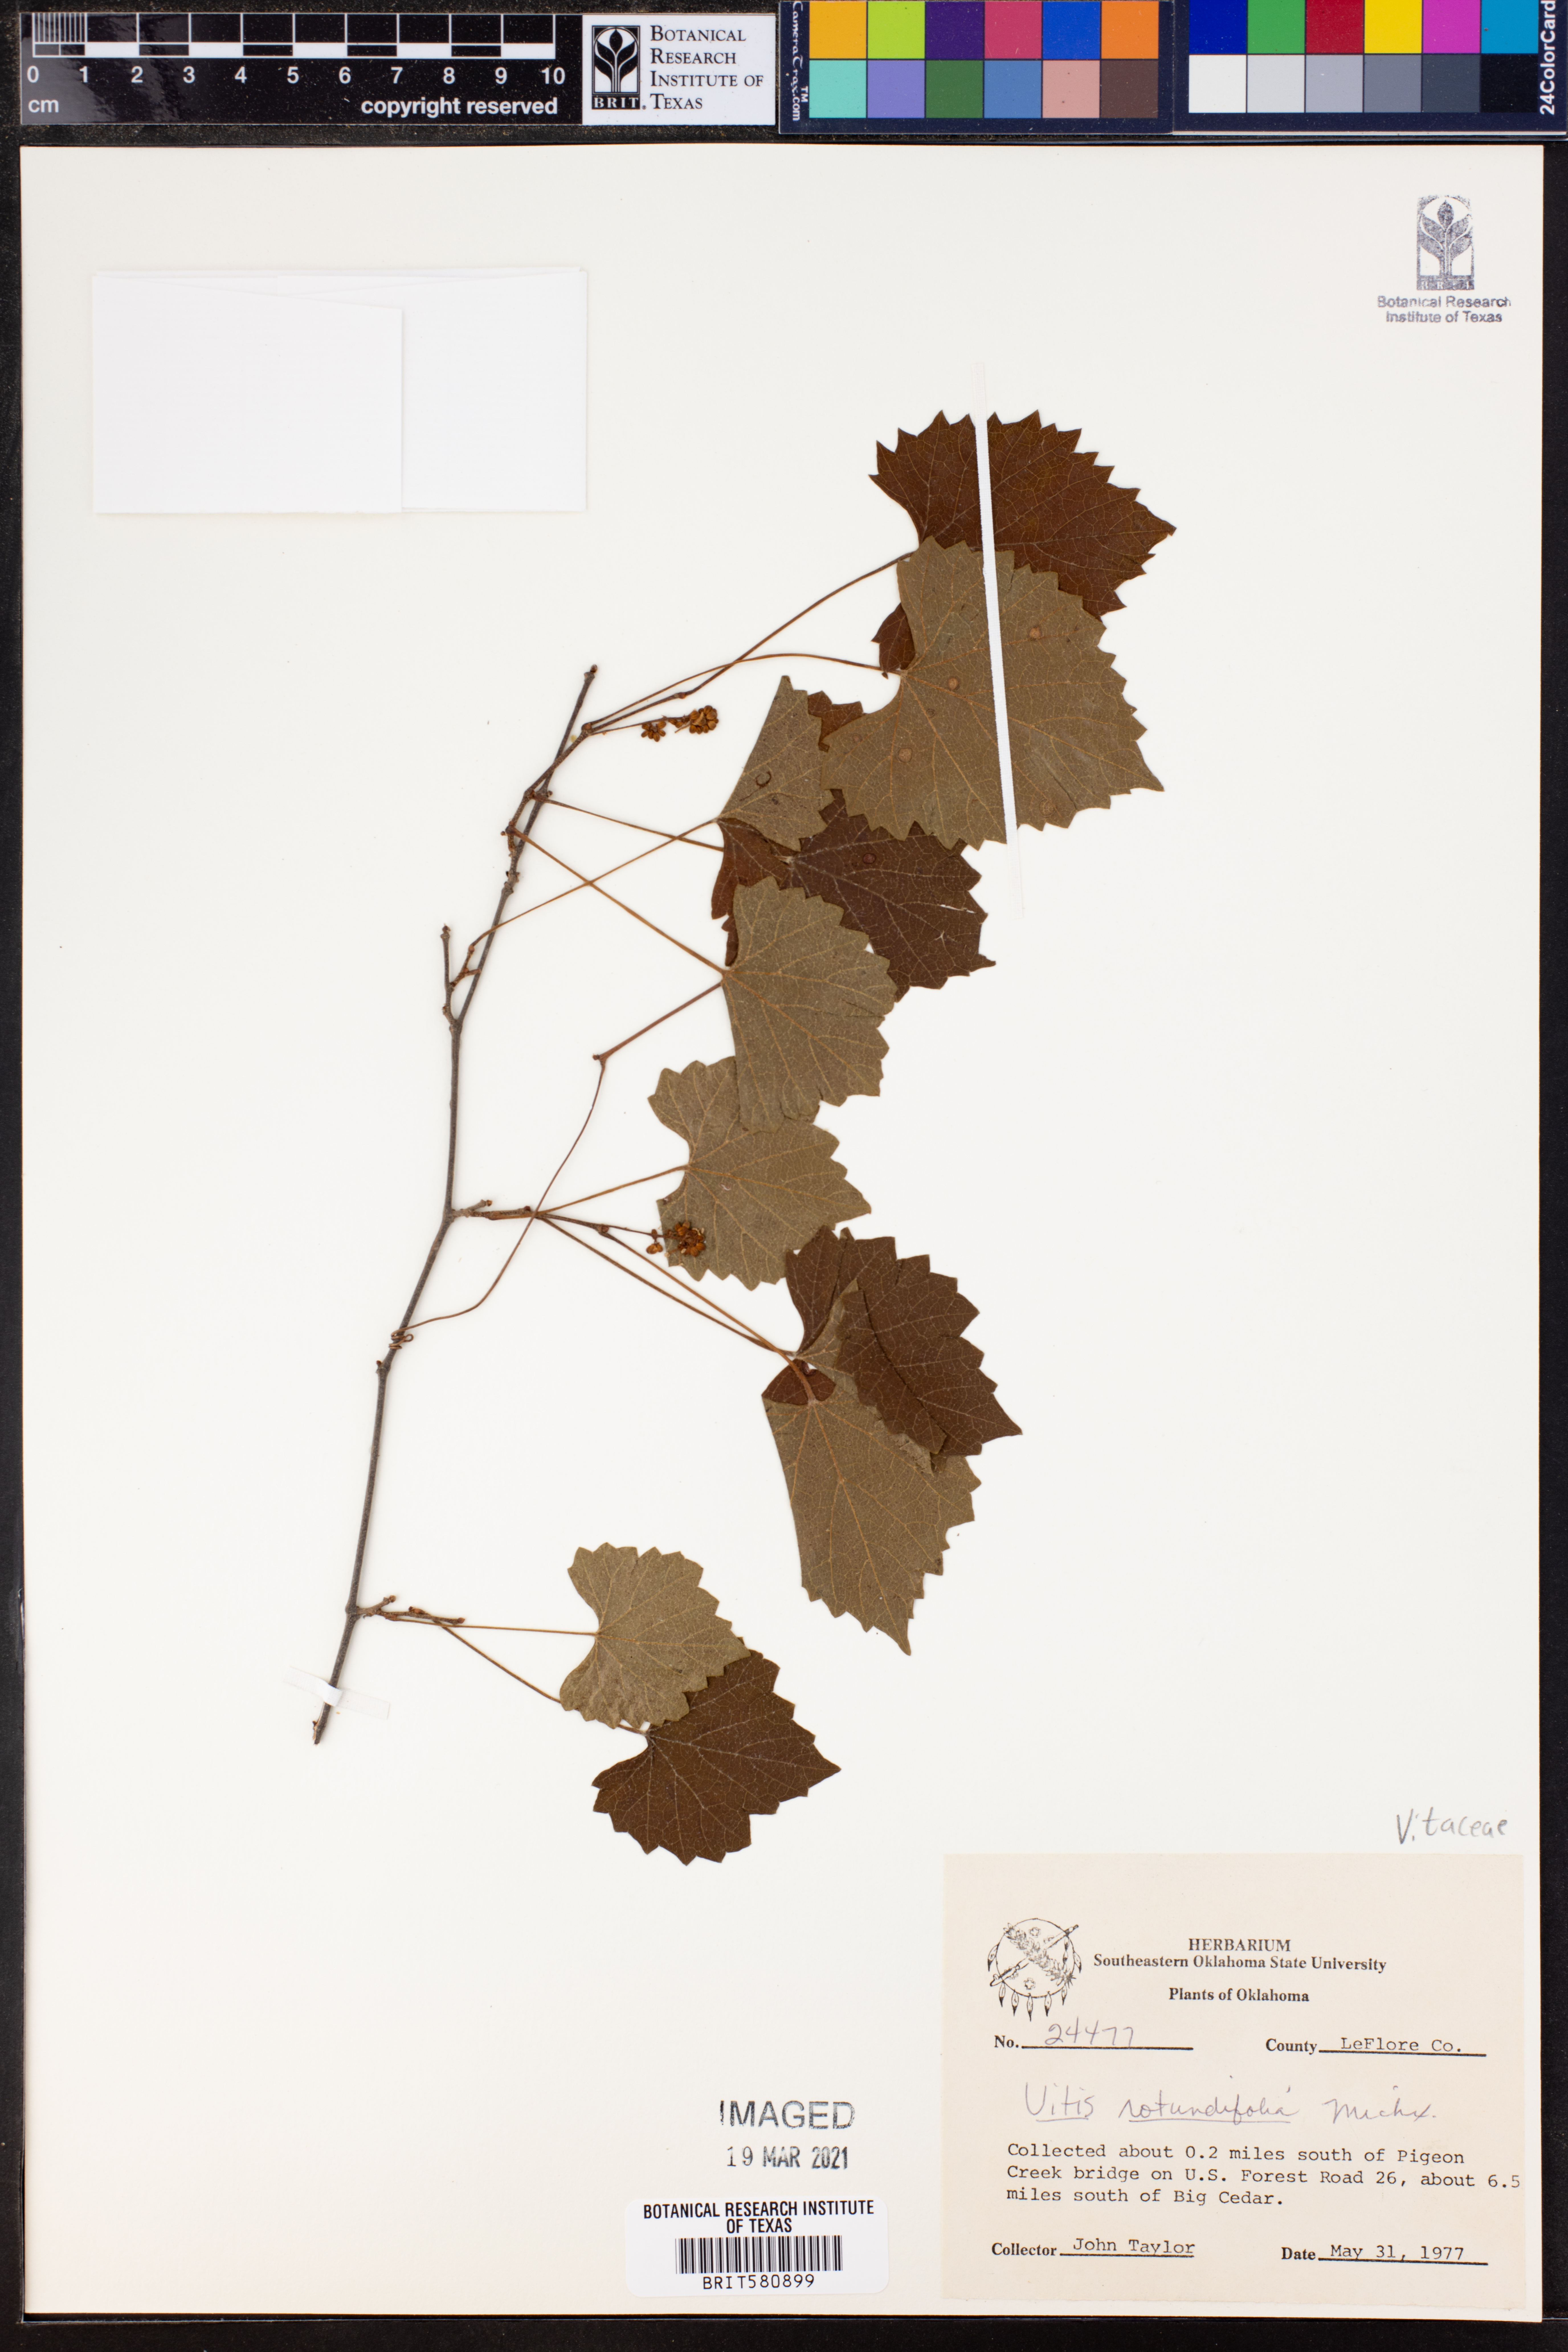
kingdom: Plantae
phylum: Tracheophyta
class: Magnoliopsida
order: Vitales
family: Vitaceae
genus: Vitis
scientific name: Vitis rotundifolia
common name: Muscadine grape
